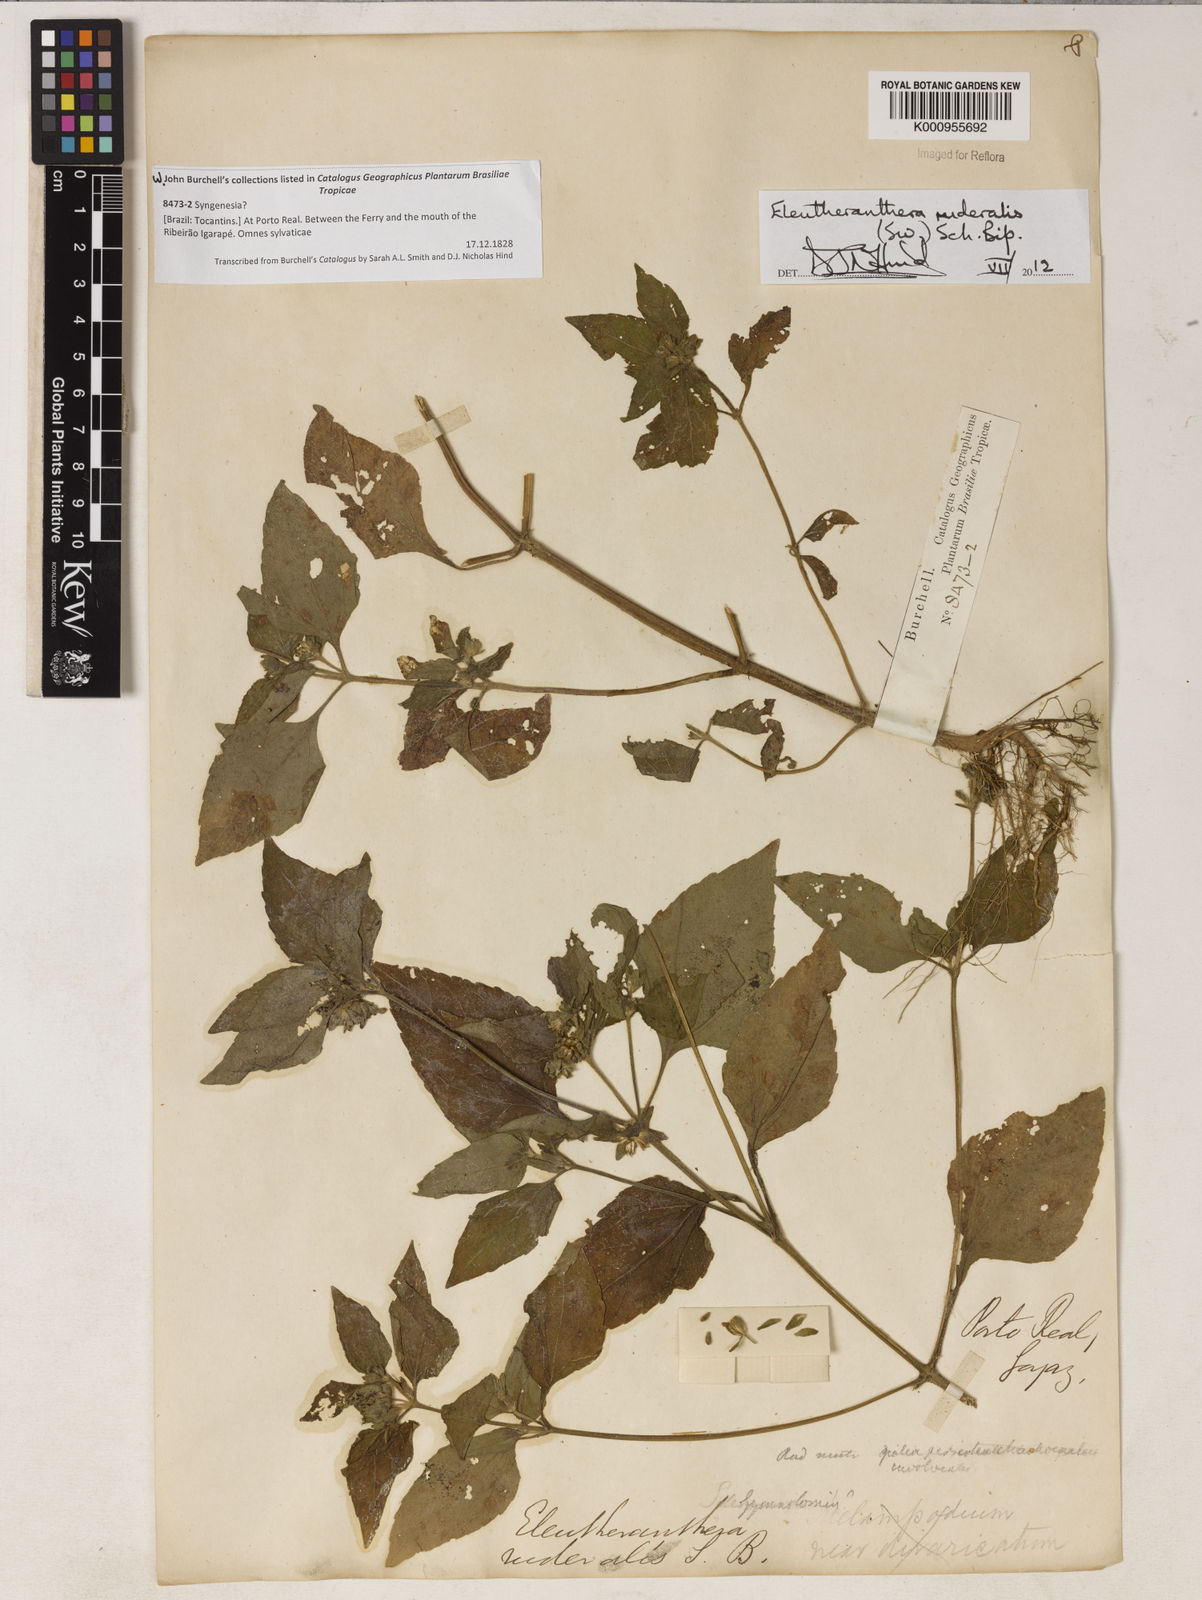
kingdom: Plantae
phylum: Tracheophyta
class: Magnoliopsida
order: Asterales
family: Asteraceae
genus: Eleutheranthera
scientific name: Eleutheranthera ruderalis
